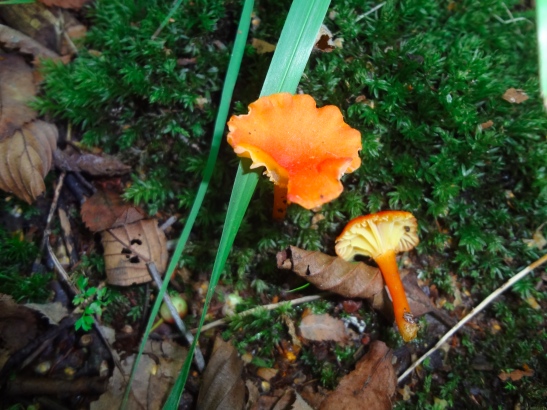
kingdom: Fungi
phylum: Basidiomycota
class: Agaricomycetes
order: Agaricales
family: Hygrophoraceae
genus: Hygrocybe
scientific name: Hygrocybe cantharellus
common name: kantarel-vokshat
